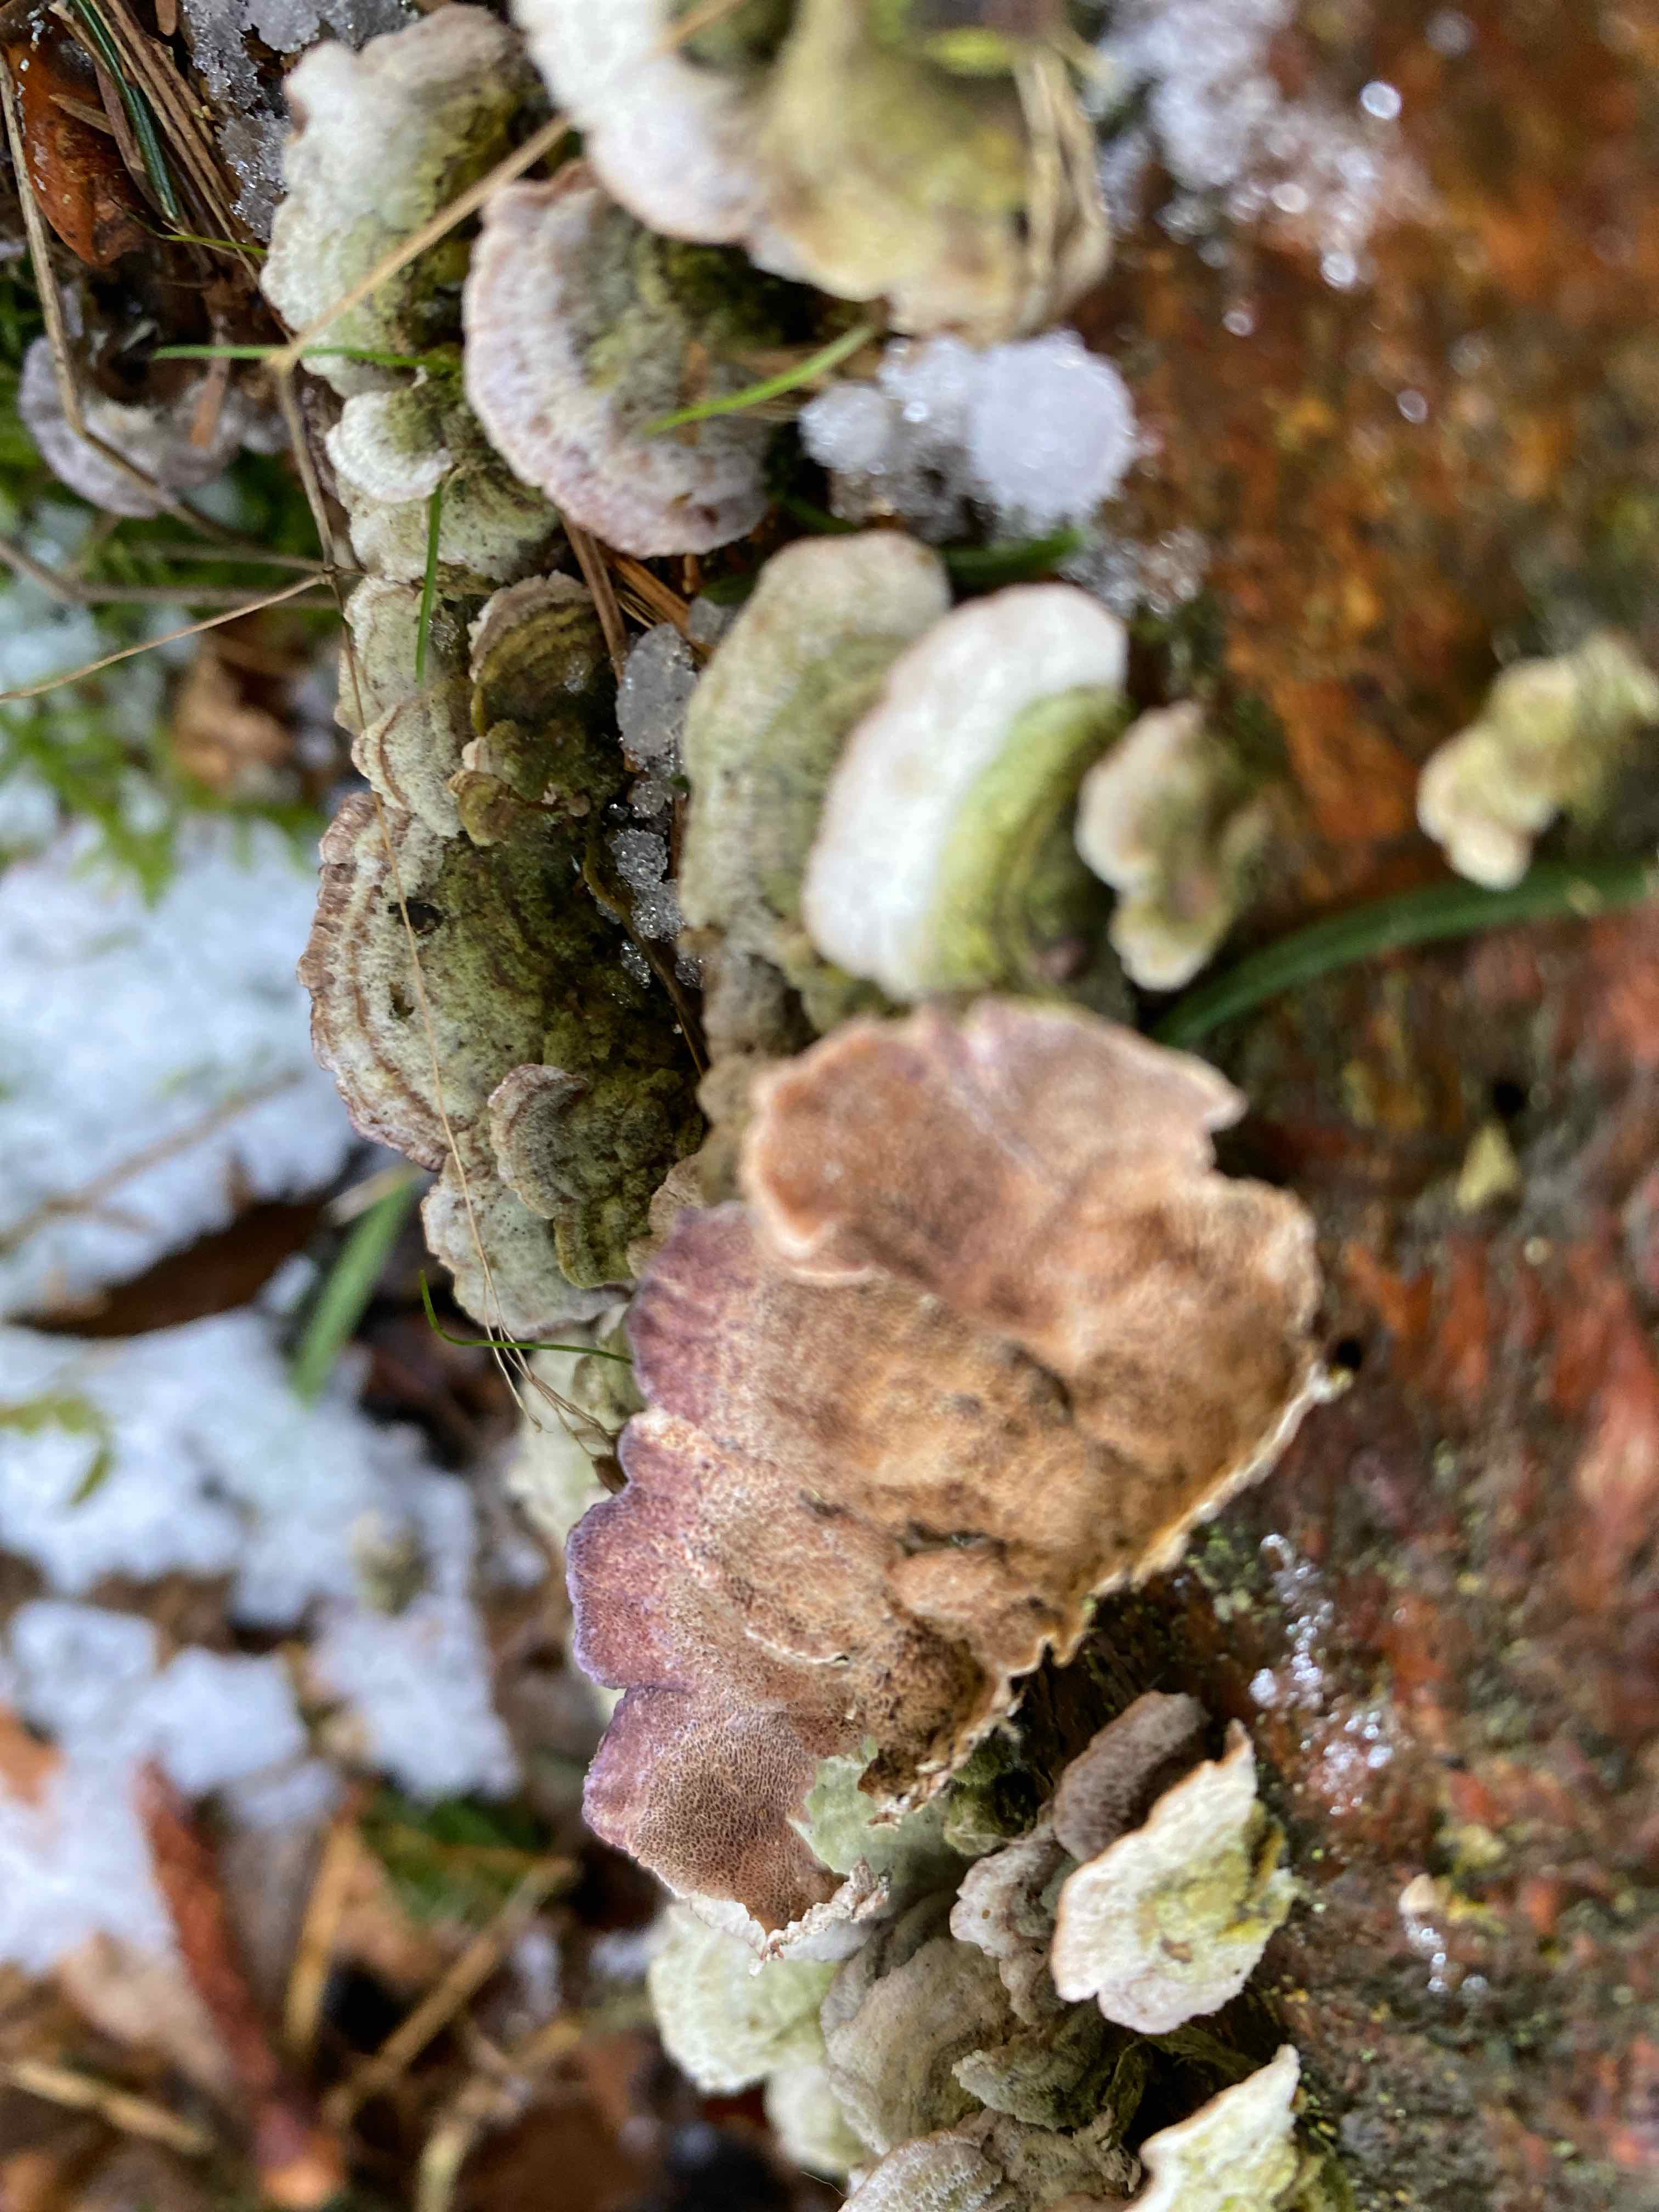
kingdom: Fungi
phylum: Basidiomycota
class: Agaricomycetes
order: Hymenochaetales
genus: Trichaptum
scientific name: Trichaptum abietinum
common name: almindelig violporesvamp
